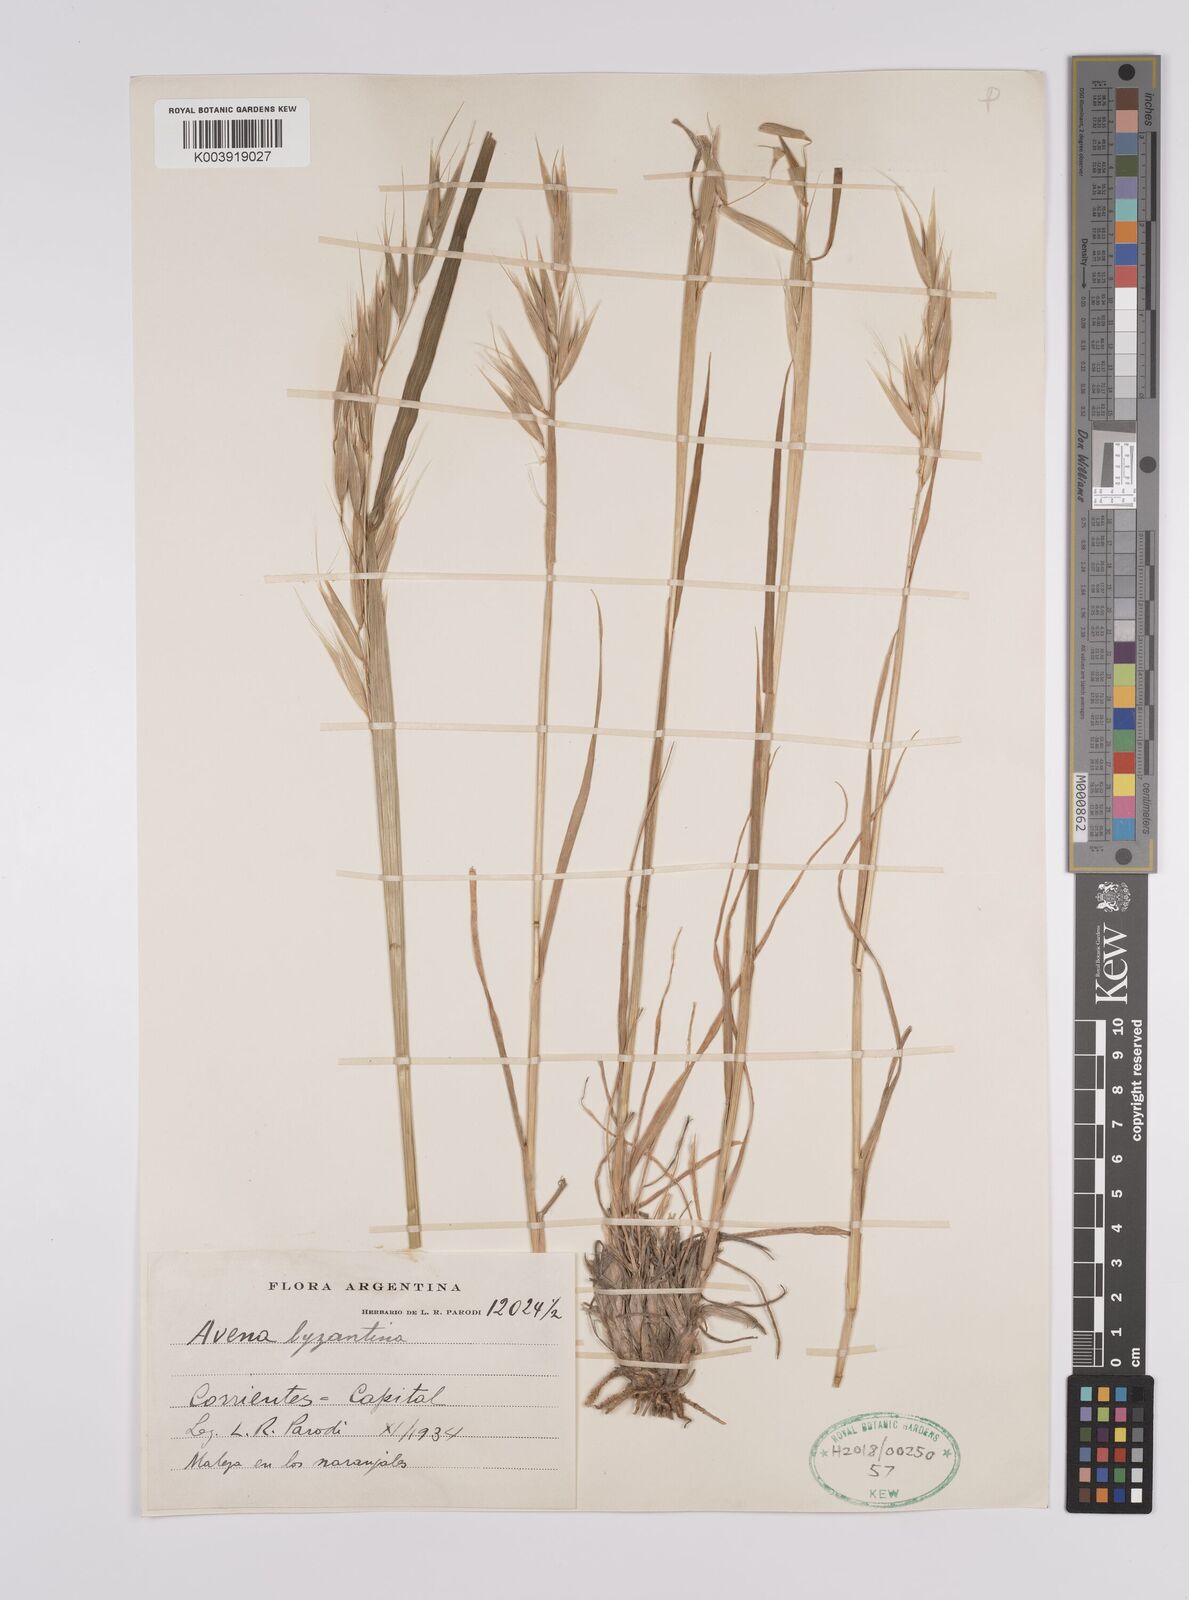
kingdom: Plantae
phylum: Tracheophyta
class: Liliopsida
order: Poales
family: Poaceae
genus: Avena
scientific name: Avena byzantina
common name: Algerian oat
